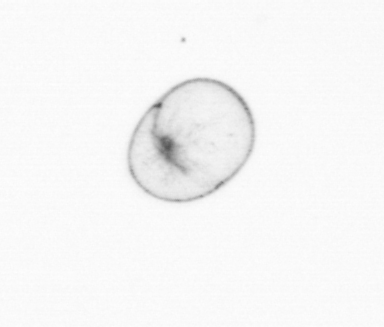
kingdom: Chromista
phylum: Myzozoa
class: Dinophyceae
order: Noctilucales
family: Noctilucaceae
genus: Noctiluca
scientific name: Noctiluca scintillans
